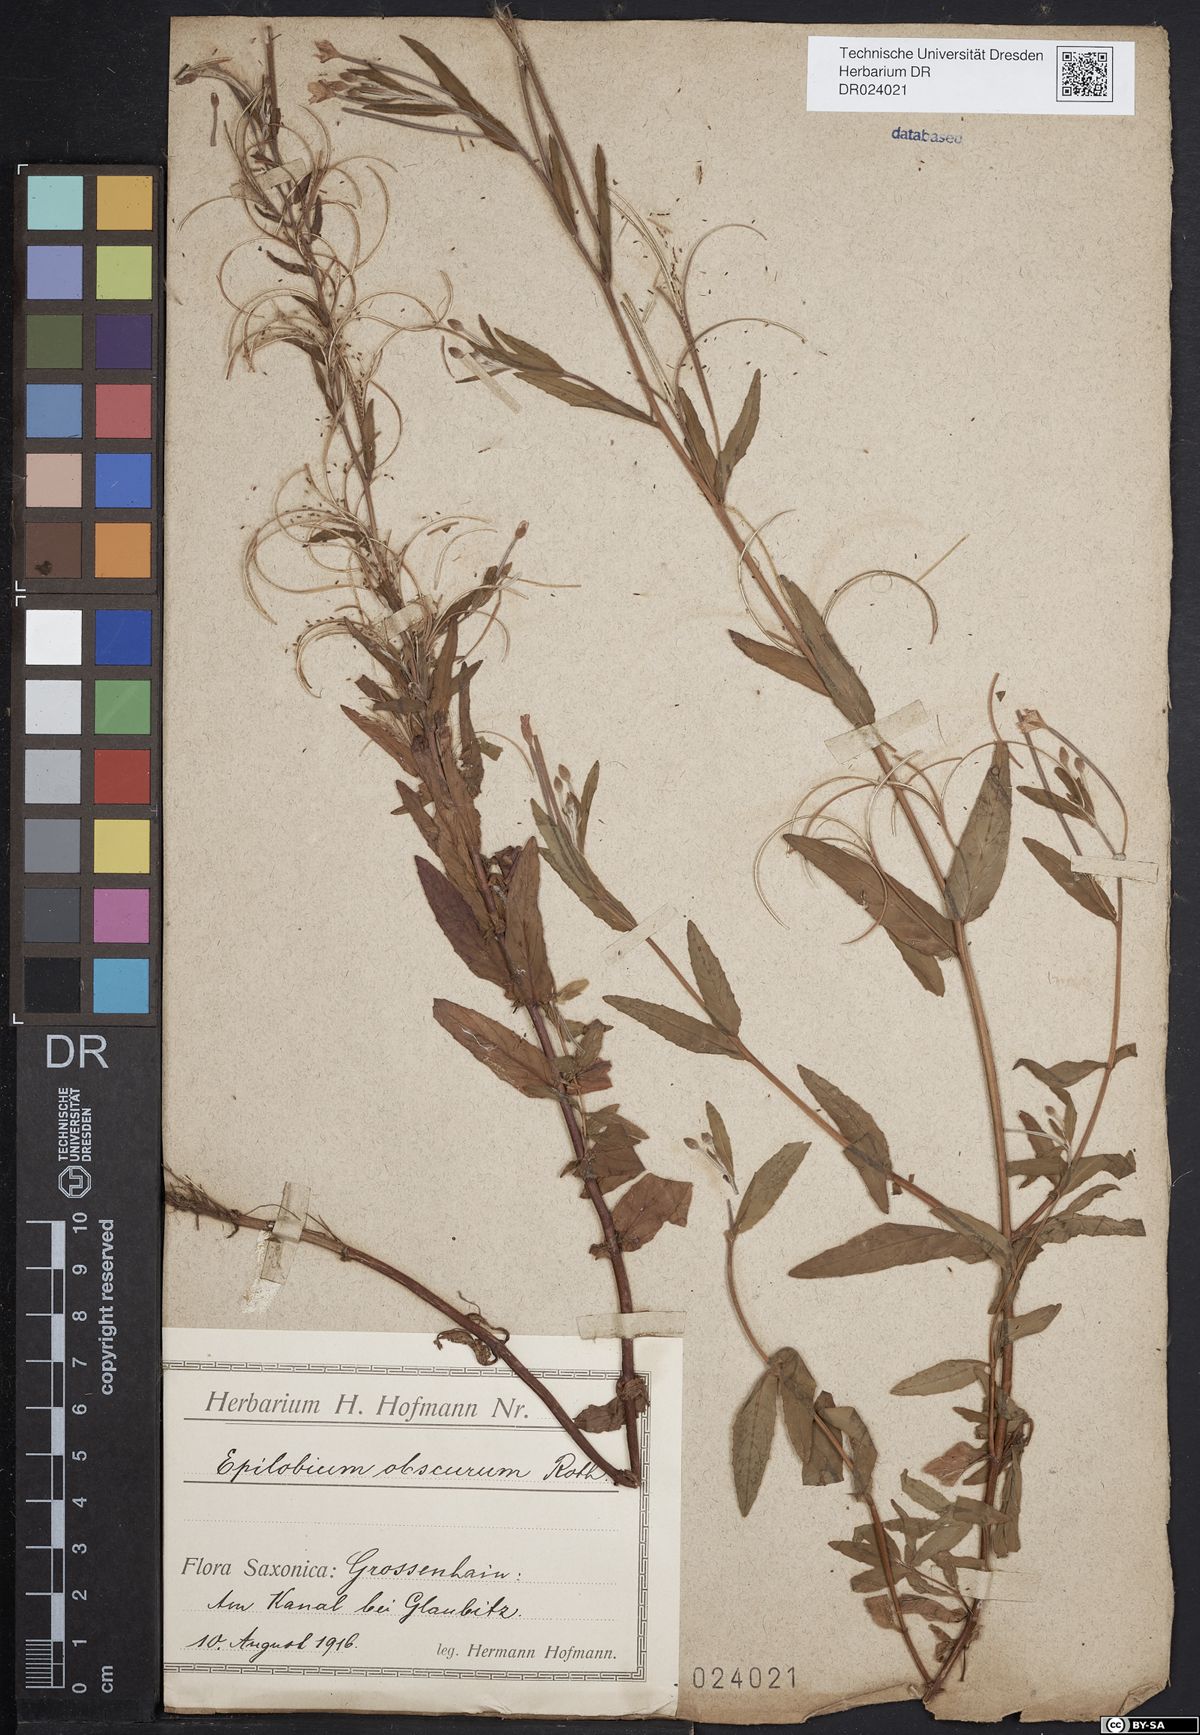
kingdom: Plantae
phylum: Tracheophyta
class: Magnoliopsida
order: Myrtales
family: Onagraceae
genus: Epilobium
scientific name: Epilobium obscurum
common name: Short-fruited willowherb
